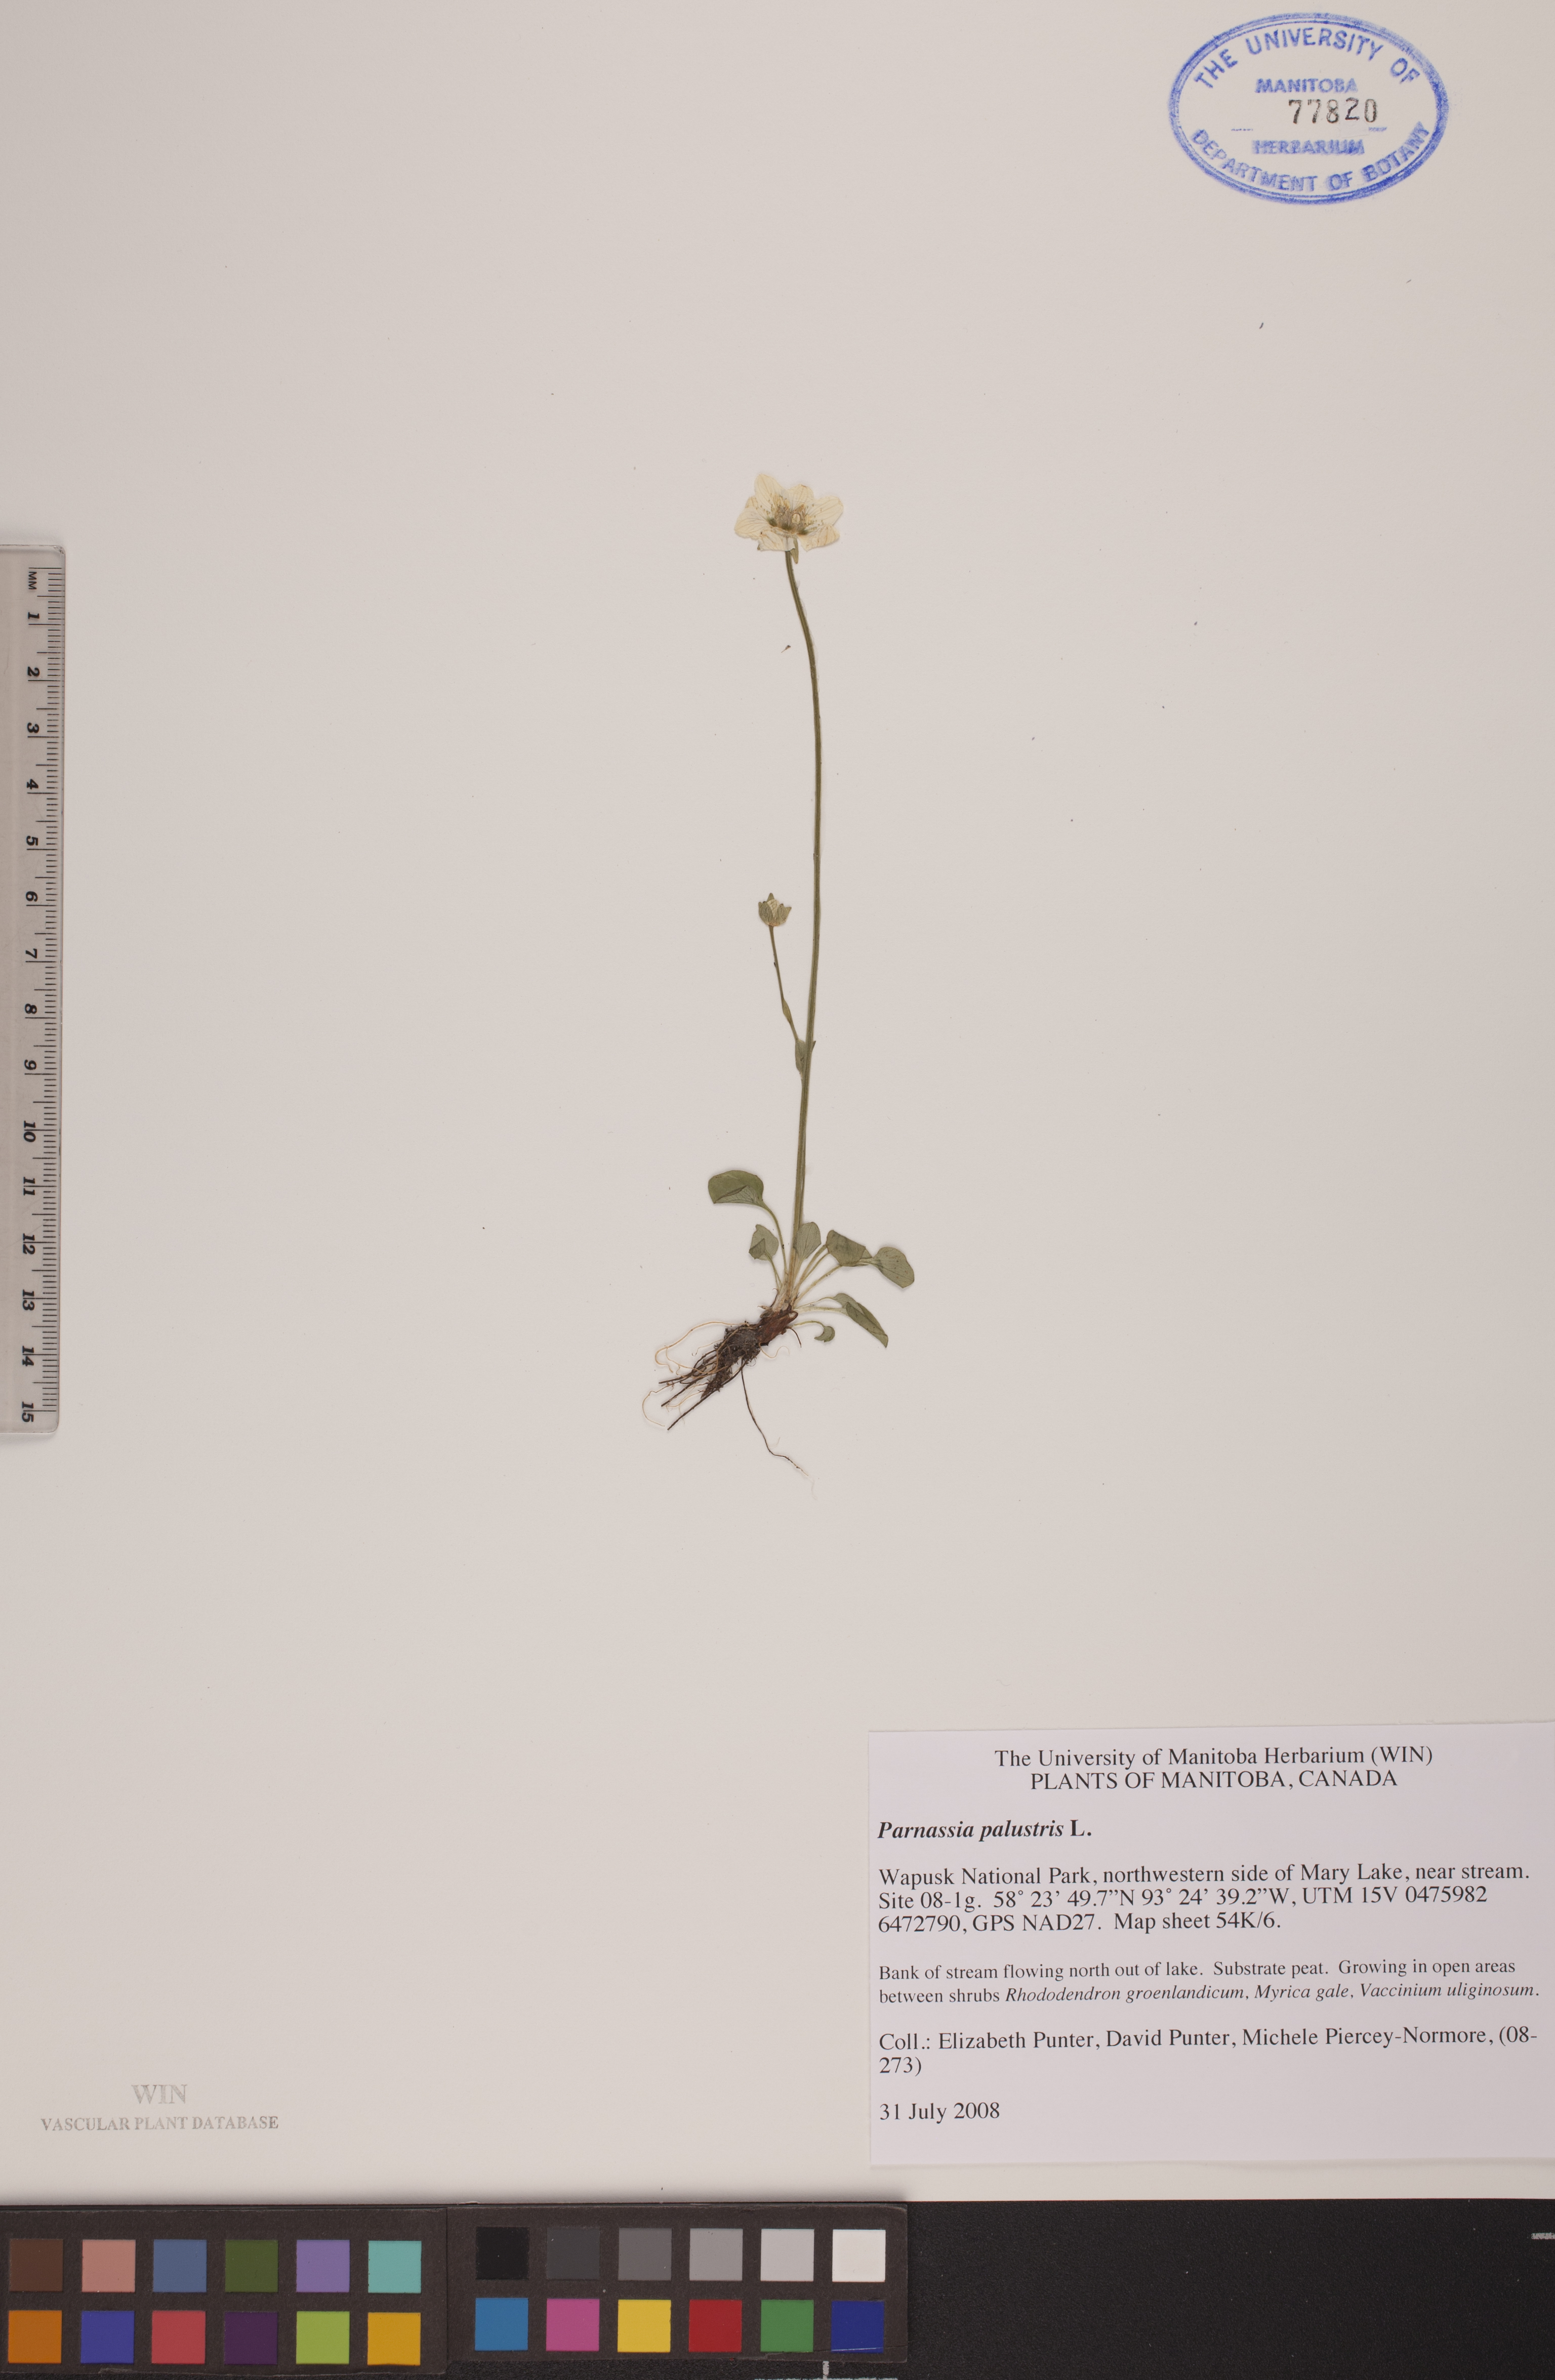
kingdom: Plantae
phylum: Tracheophyta
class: Magnoliopsida
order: Celastrales
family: Parnassiaceae
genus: Parnassia
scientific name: Parnassia palustris
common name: Grass-of-parnassus
